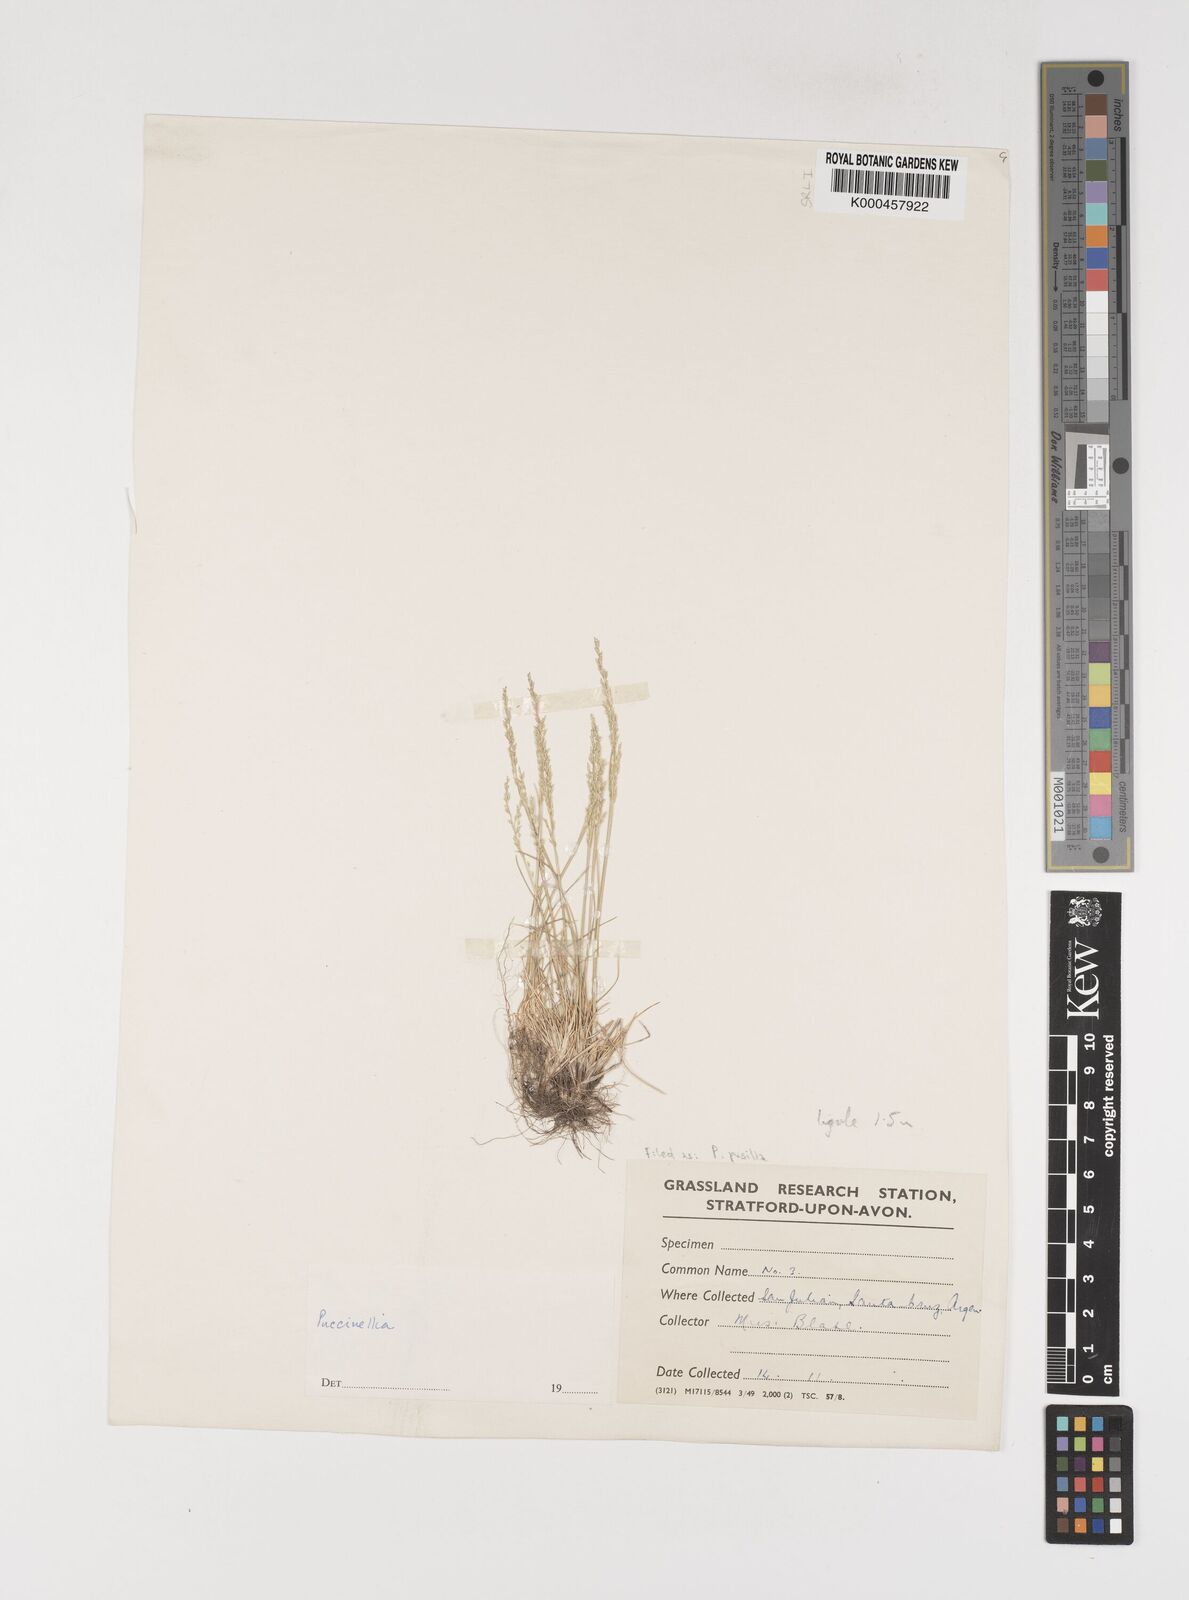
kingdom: Plantae
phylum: Tracheophyta
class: Liliopsida
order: Poales
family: Poaceae
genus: Puccinellia
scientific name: Puccinellia pusilla
